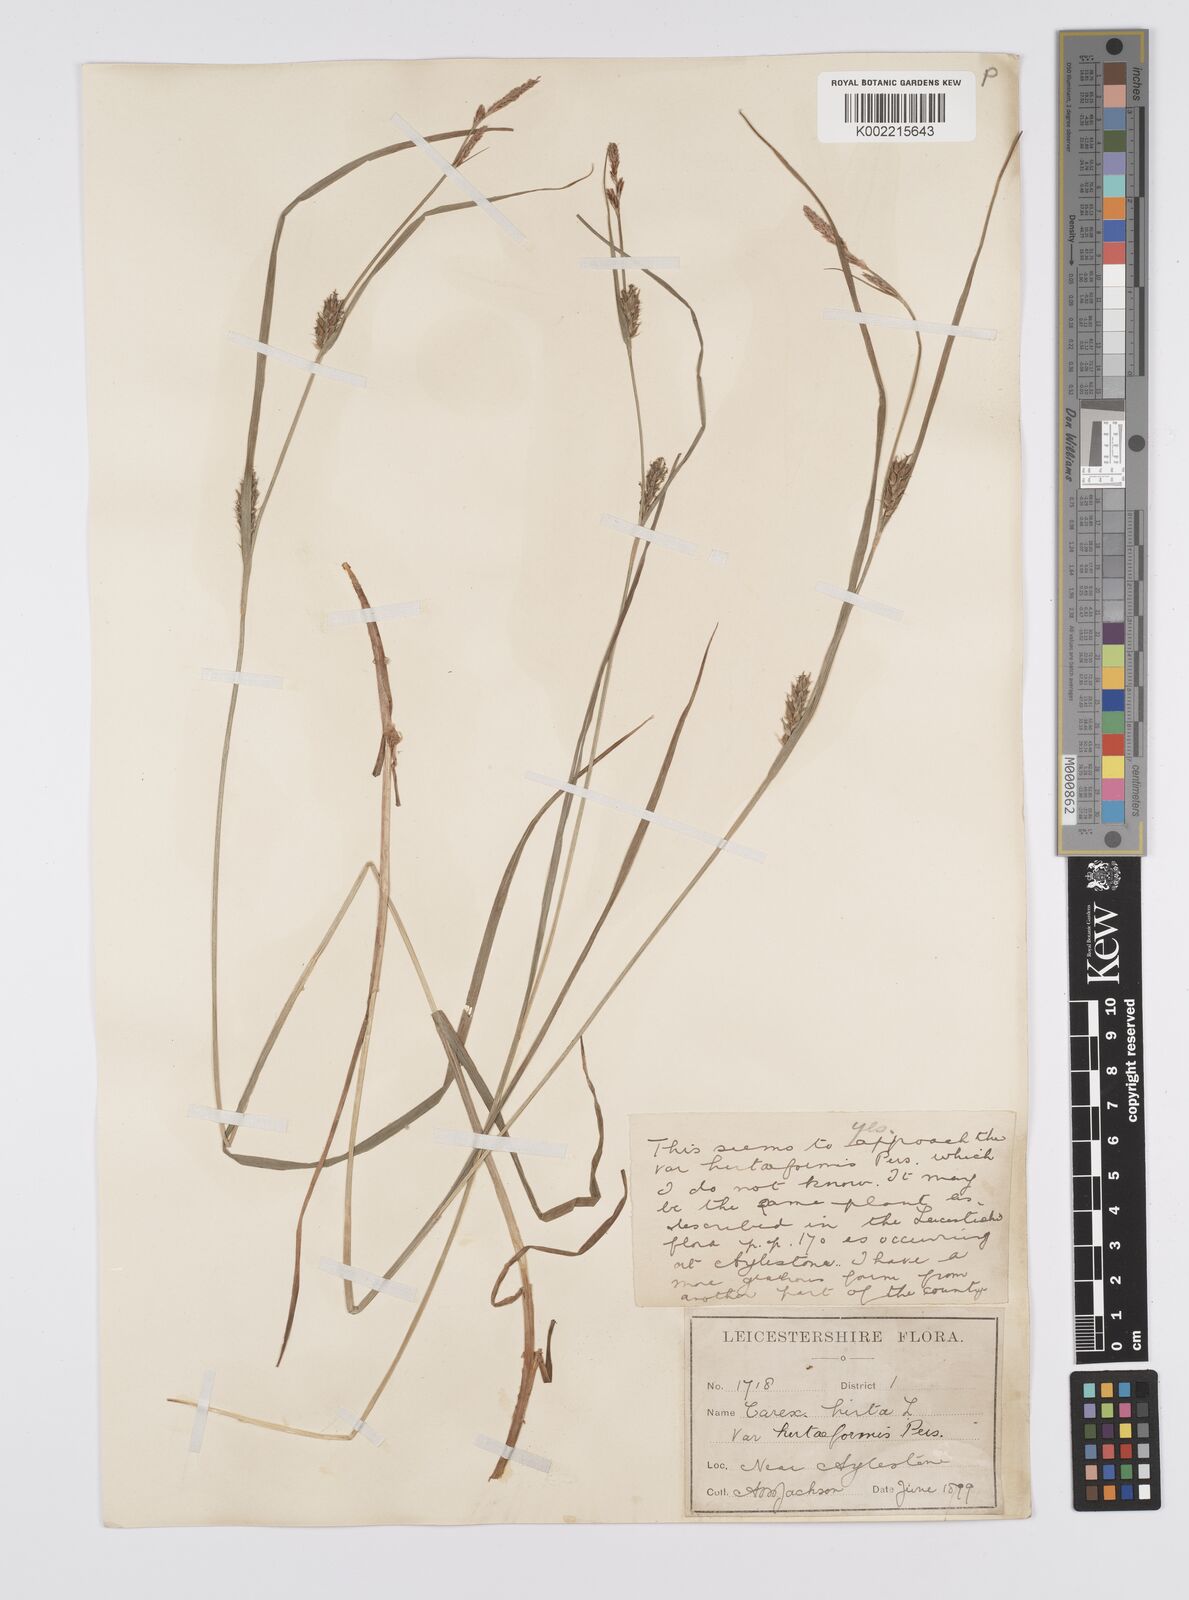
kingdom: Plantae
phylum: Tracheophyta
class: Liliopsida
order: Poales
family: Cyperaceae
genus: Carex
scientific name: Carex hirta
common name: Hairy sedge
